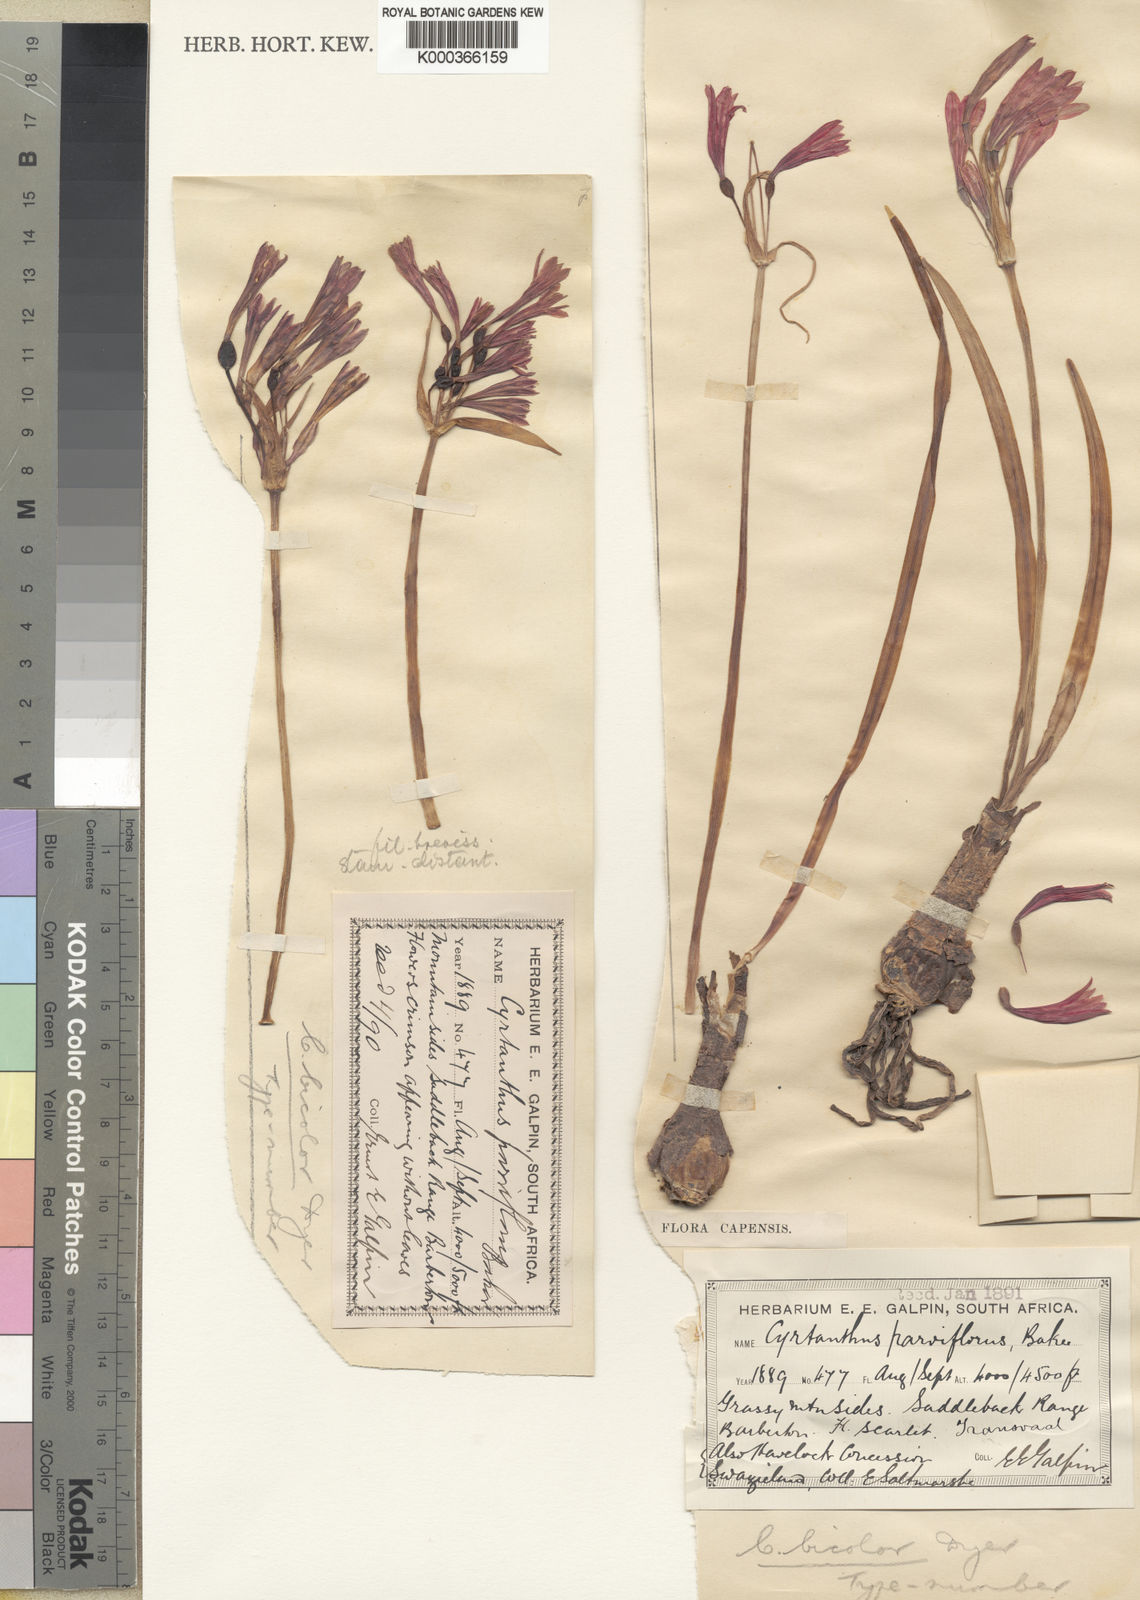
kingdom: Plantae
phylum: Tracheophyta
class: Liliopsida
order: Asparagales
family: Amaryllidaceae
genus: Cyrtanthus
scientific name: Cyrtanthus bicolor
